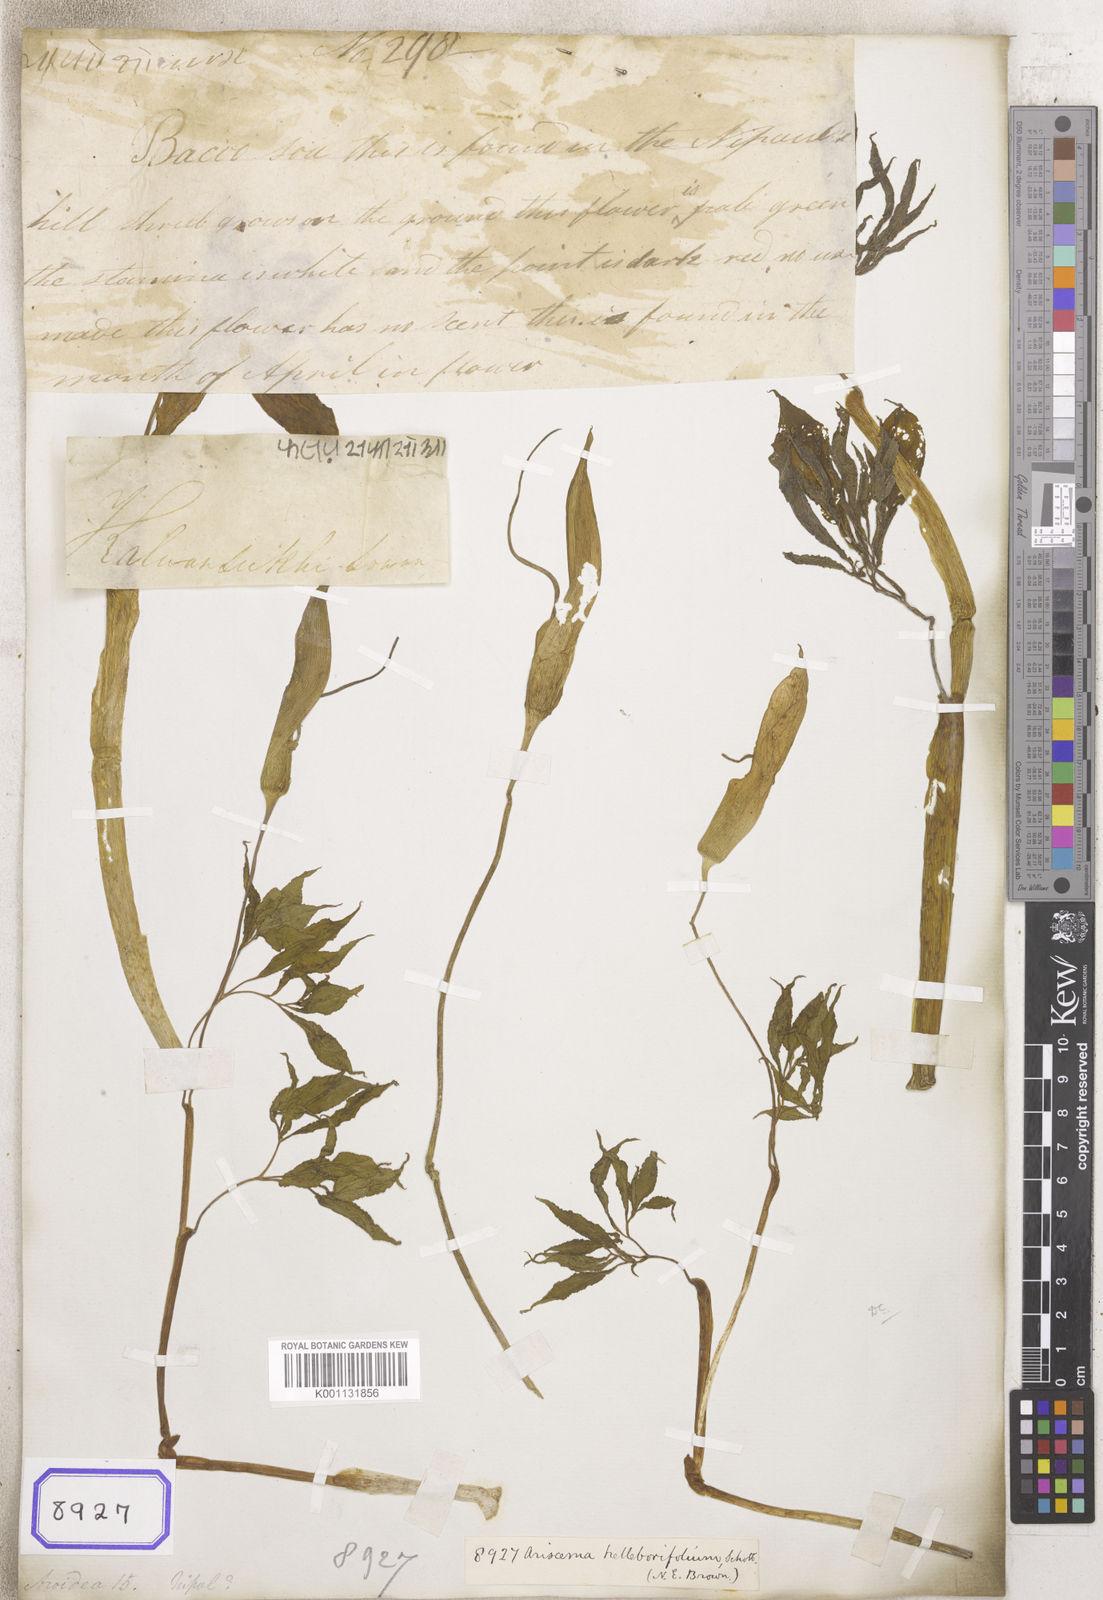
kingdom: Plantae
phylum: Tracheophyta
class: Liliopsida
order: Alismatales
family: Araceae
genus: Arisaema
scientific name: Arisaema
